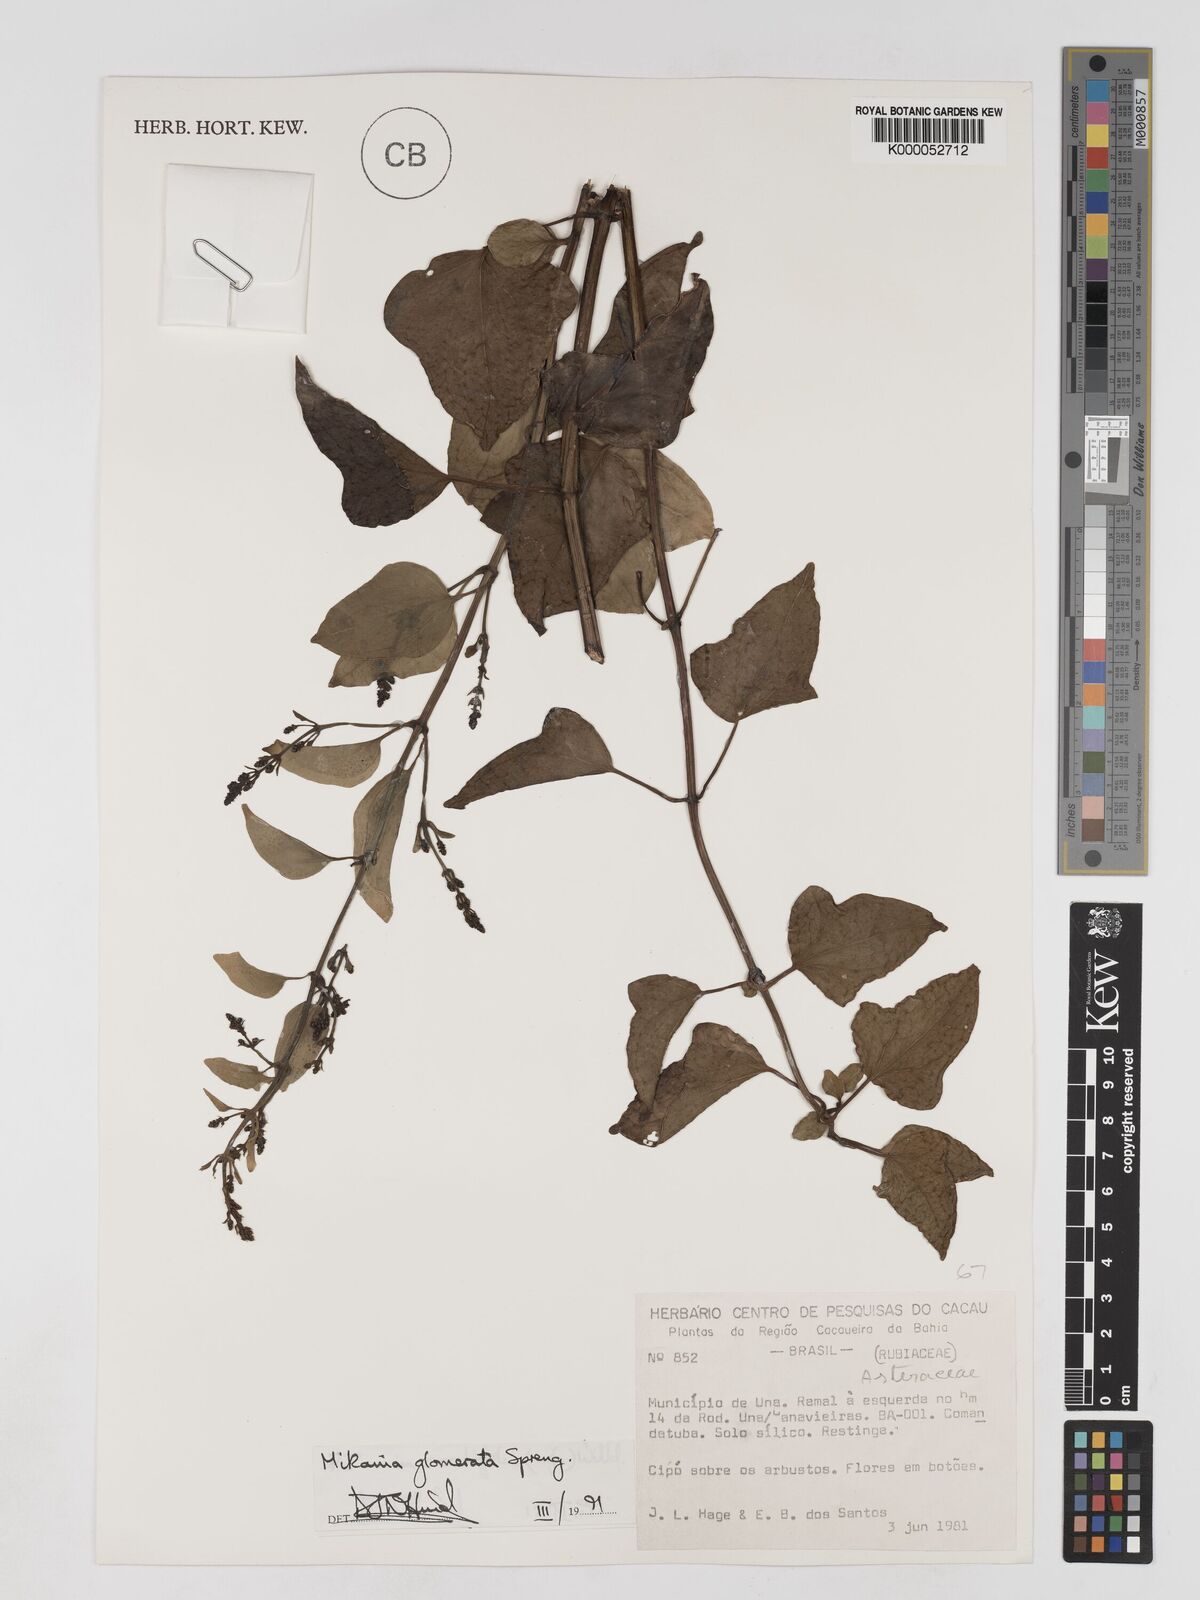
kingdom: Plantae
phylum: Tracheophyta
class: Magnoliopsida
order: Asterales
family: Asteraceae
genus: Mikania
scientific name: Mikania glomerata
